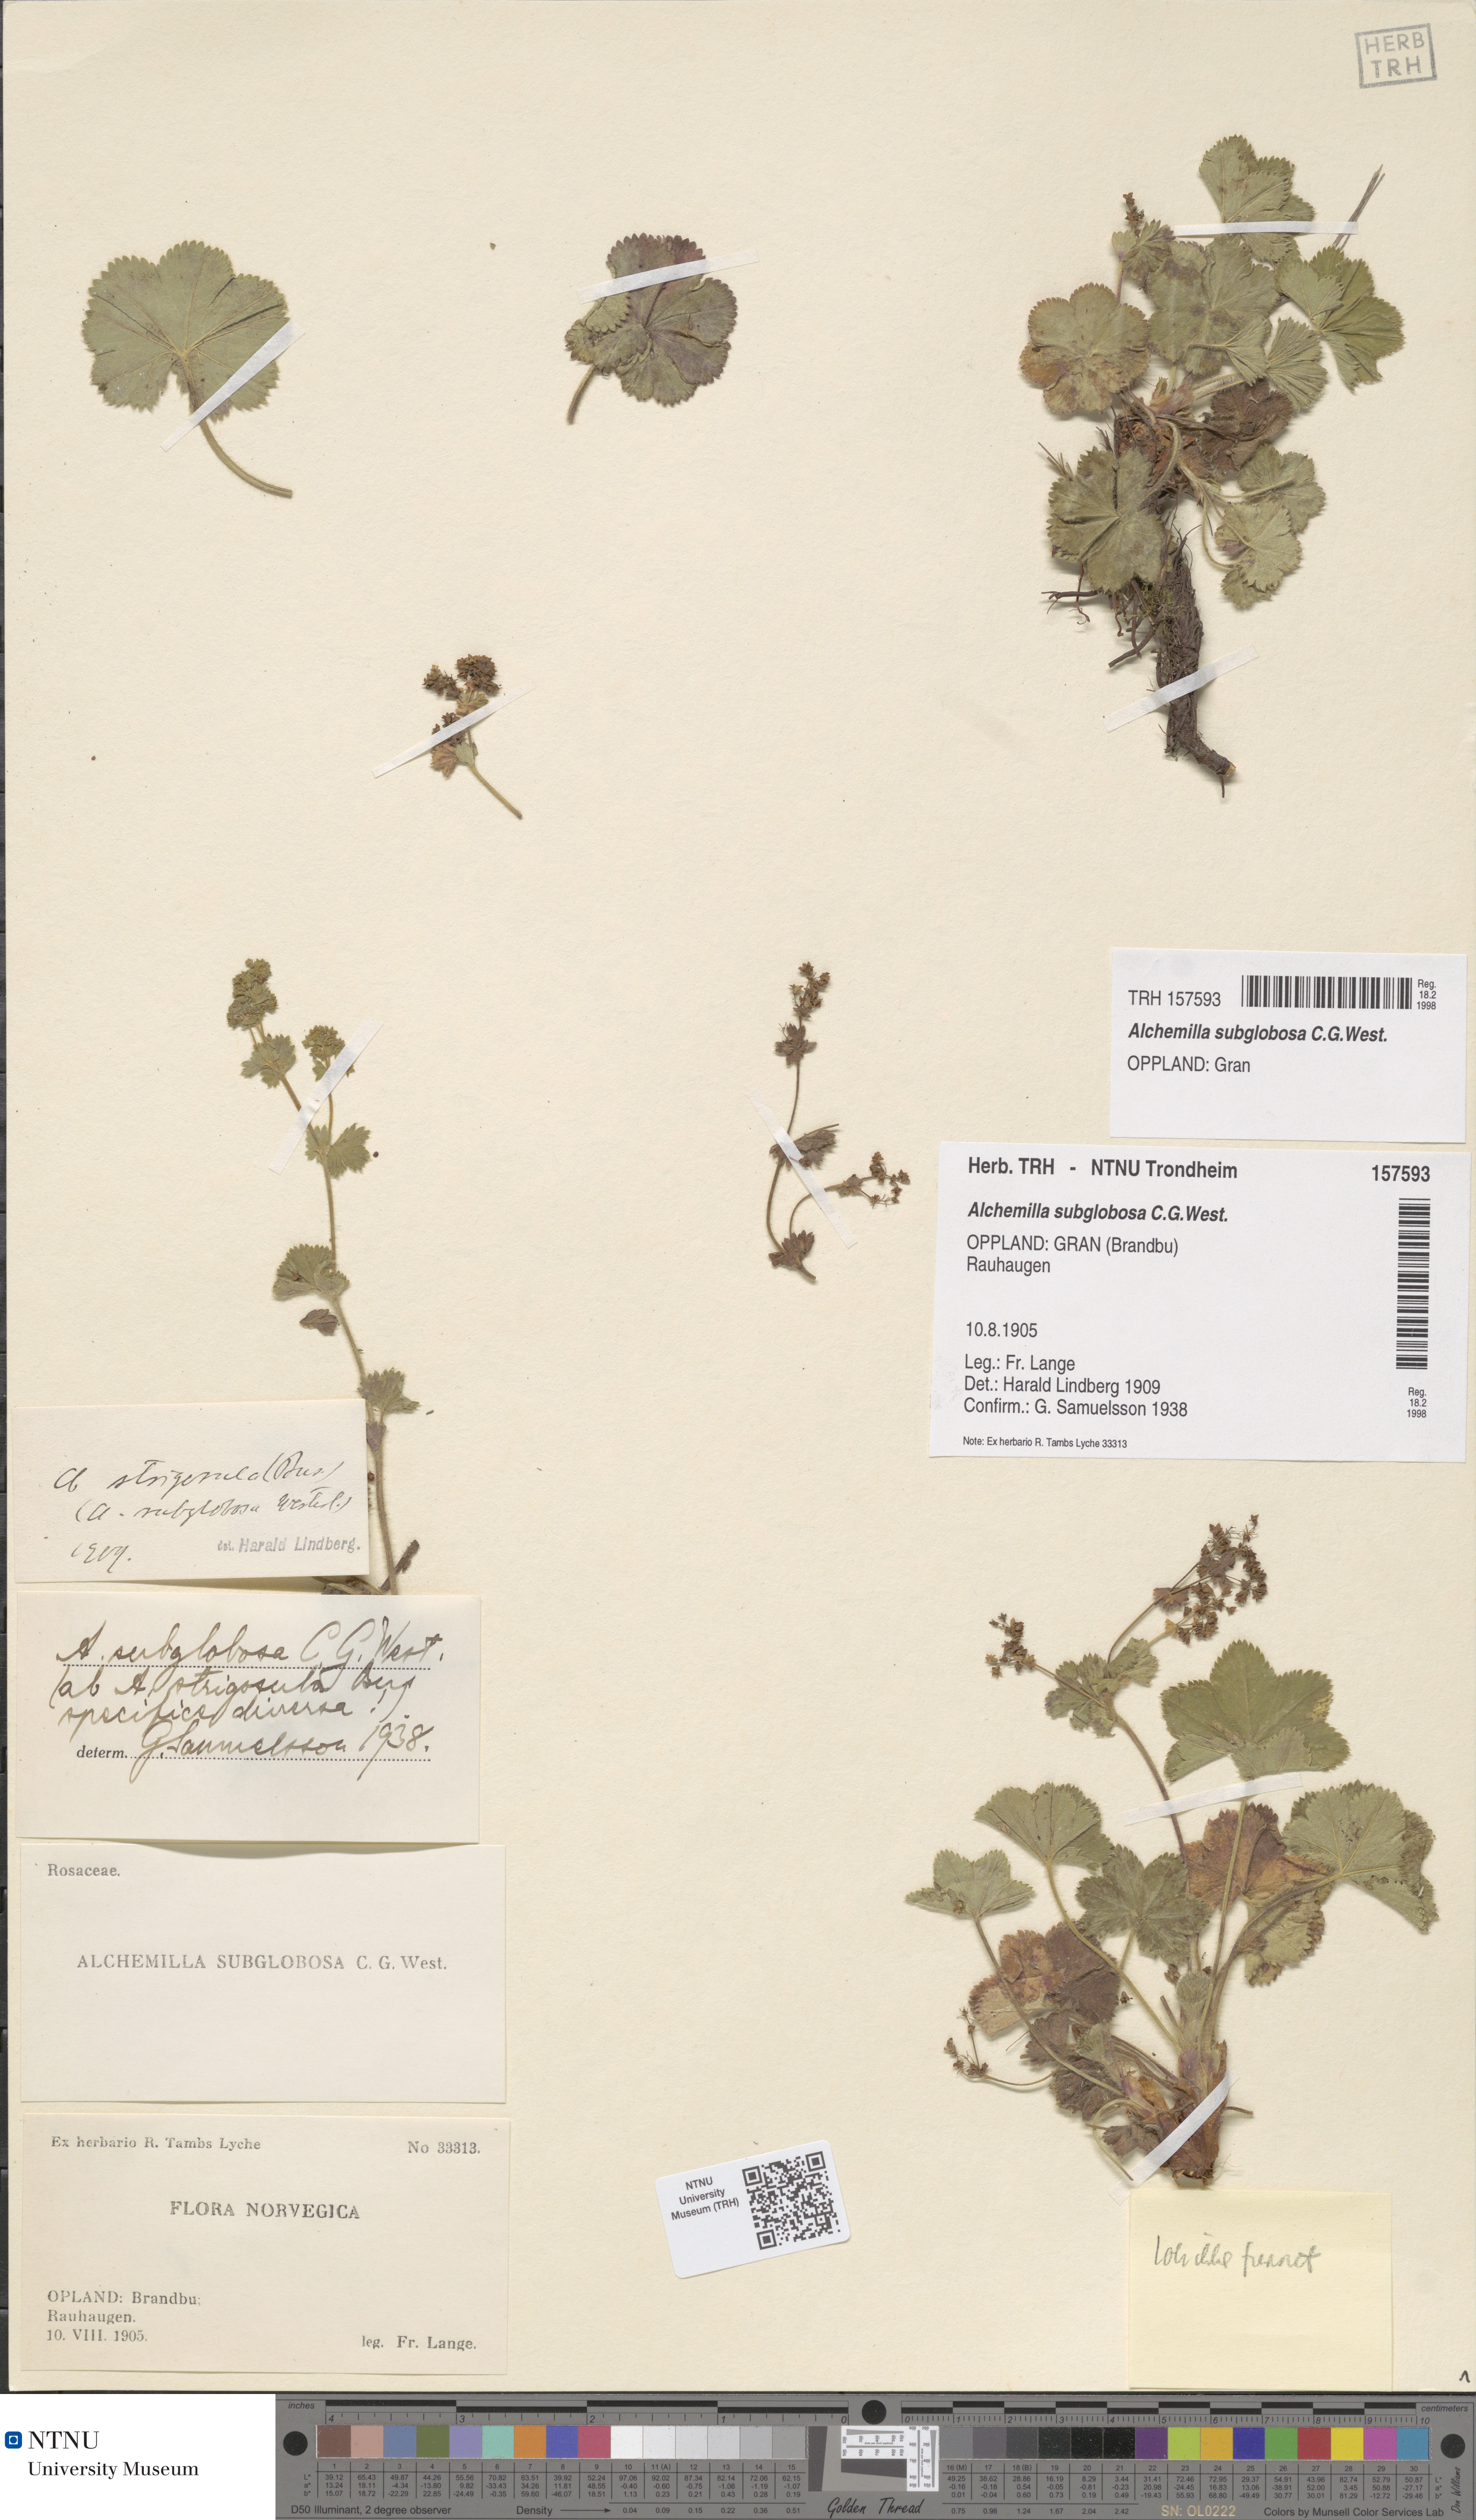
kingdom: Plantae
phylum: Tracheophyta
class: Magnoliopsida
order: Rosales
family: Rosaceae
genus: Alchemilla
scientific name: Alchemilla subglobosa
